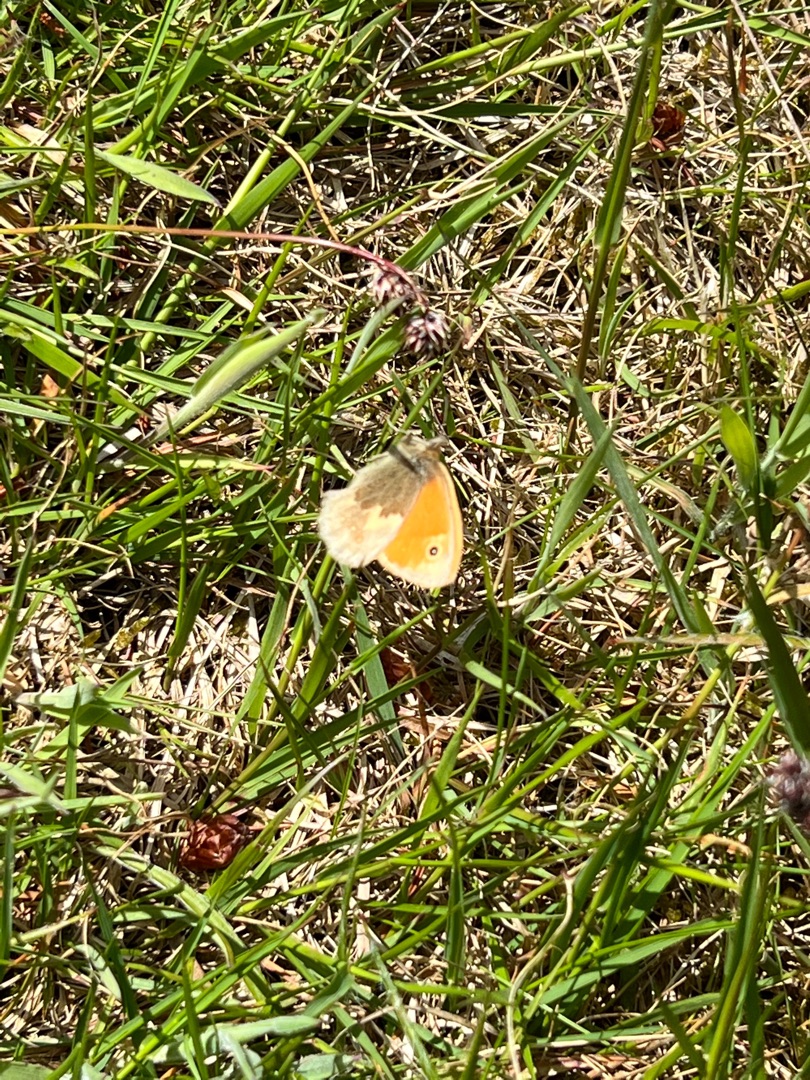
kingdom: Animalia
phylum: Arthropoda
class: Insecta
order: Lepidoptera
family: Nymphalidae
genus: Coenonympha
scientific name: Coenonympha pamphilus
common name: Okkergul randøje
